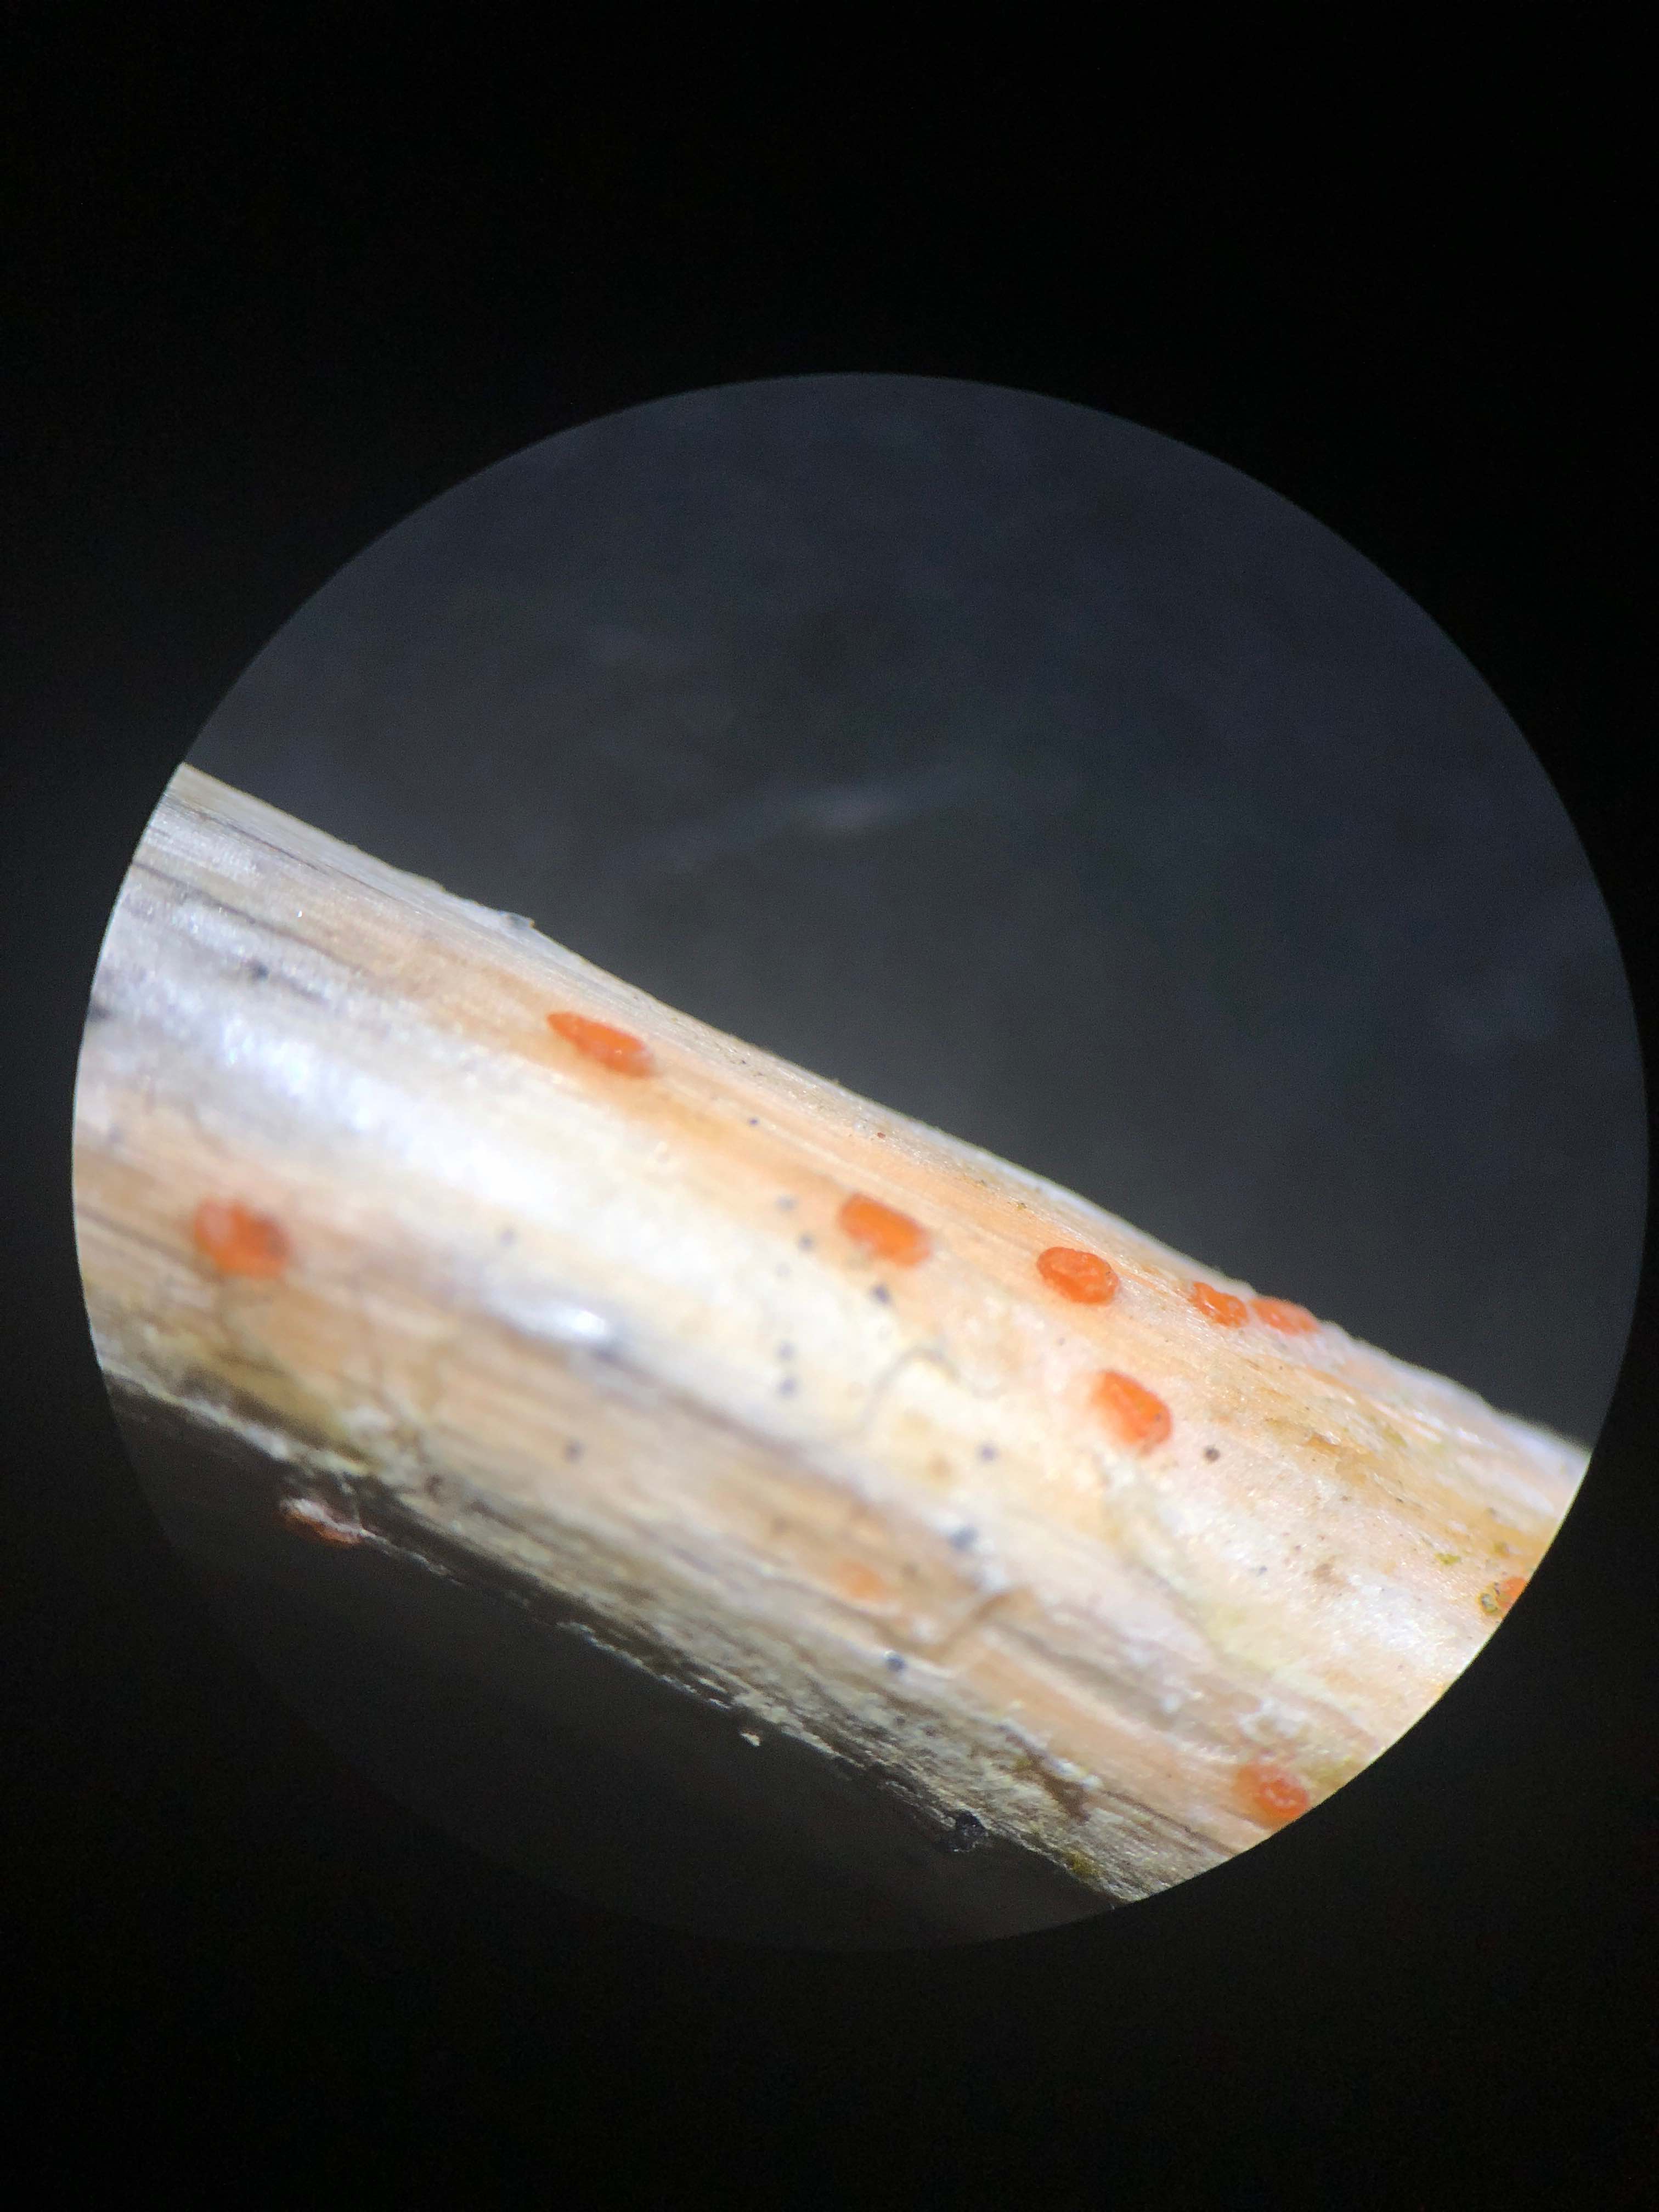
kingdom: Fungi
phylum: Ascomycota
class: Leotiomycetes
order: Helotiales
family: Calloriaceae
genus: Calloria
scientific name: Calloria urticae
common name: nælde-orangeskive
